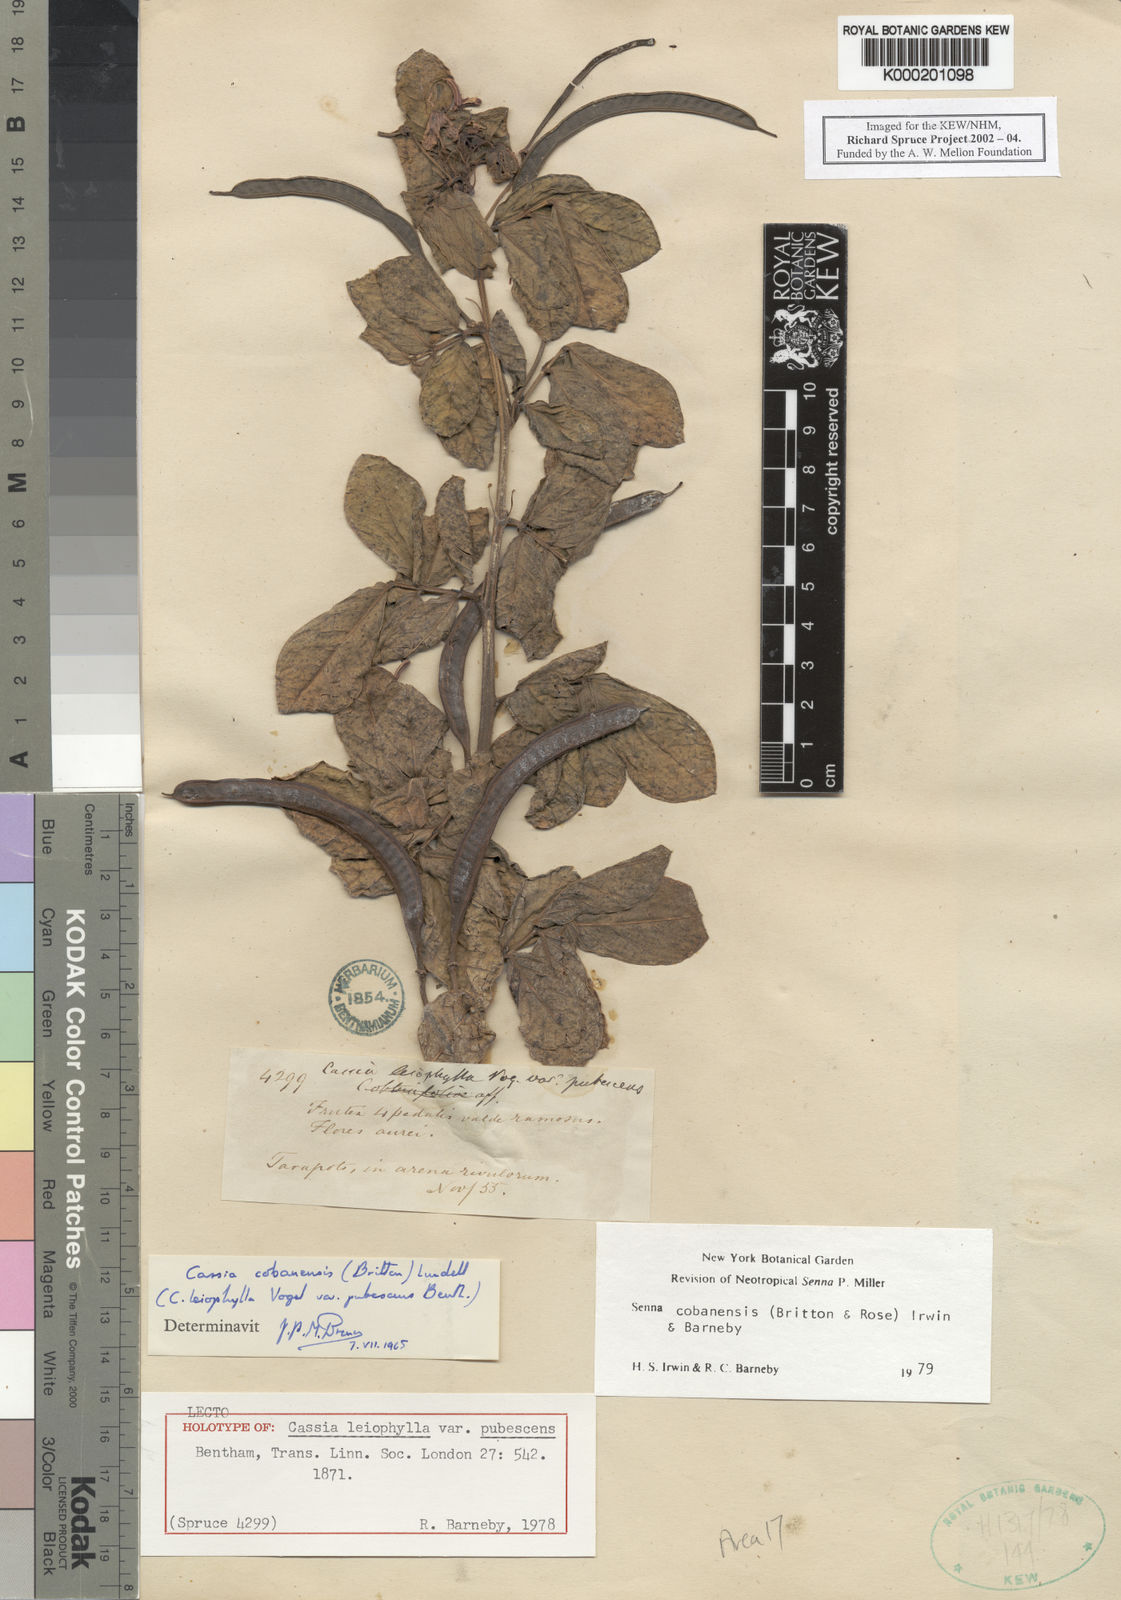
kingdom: Plantae
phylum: Tracheophyta
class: Magnoliopsida
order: Fabales
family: Fabaceae
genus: Senna
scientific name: Senna cobanensis
